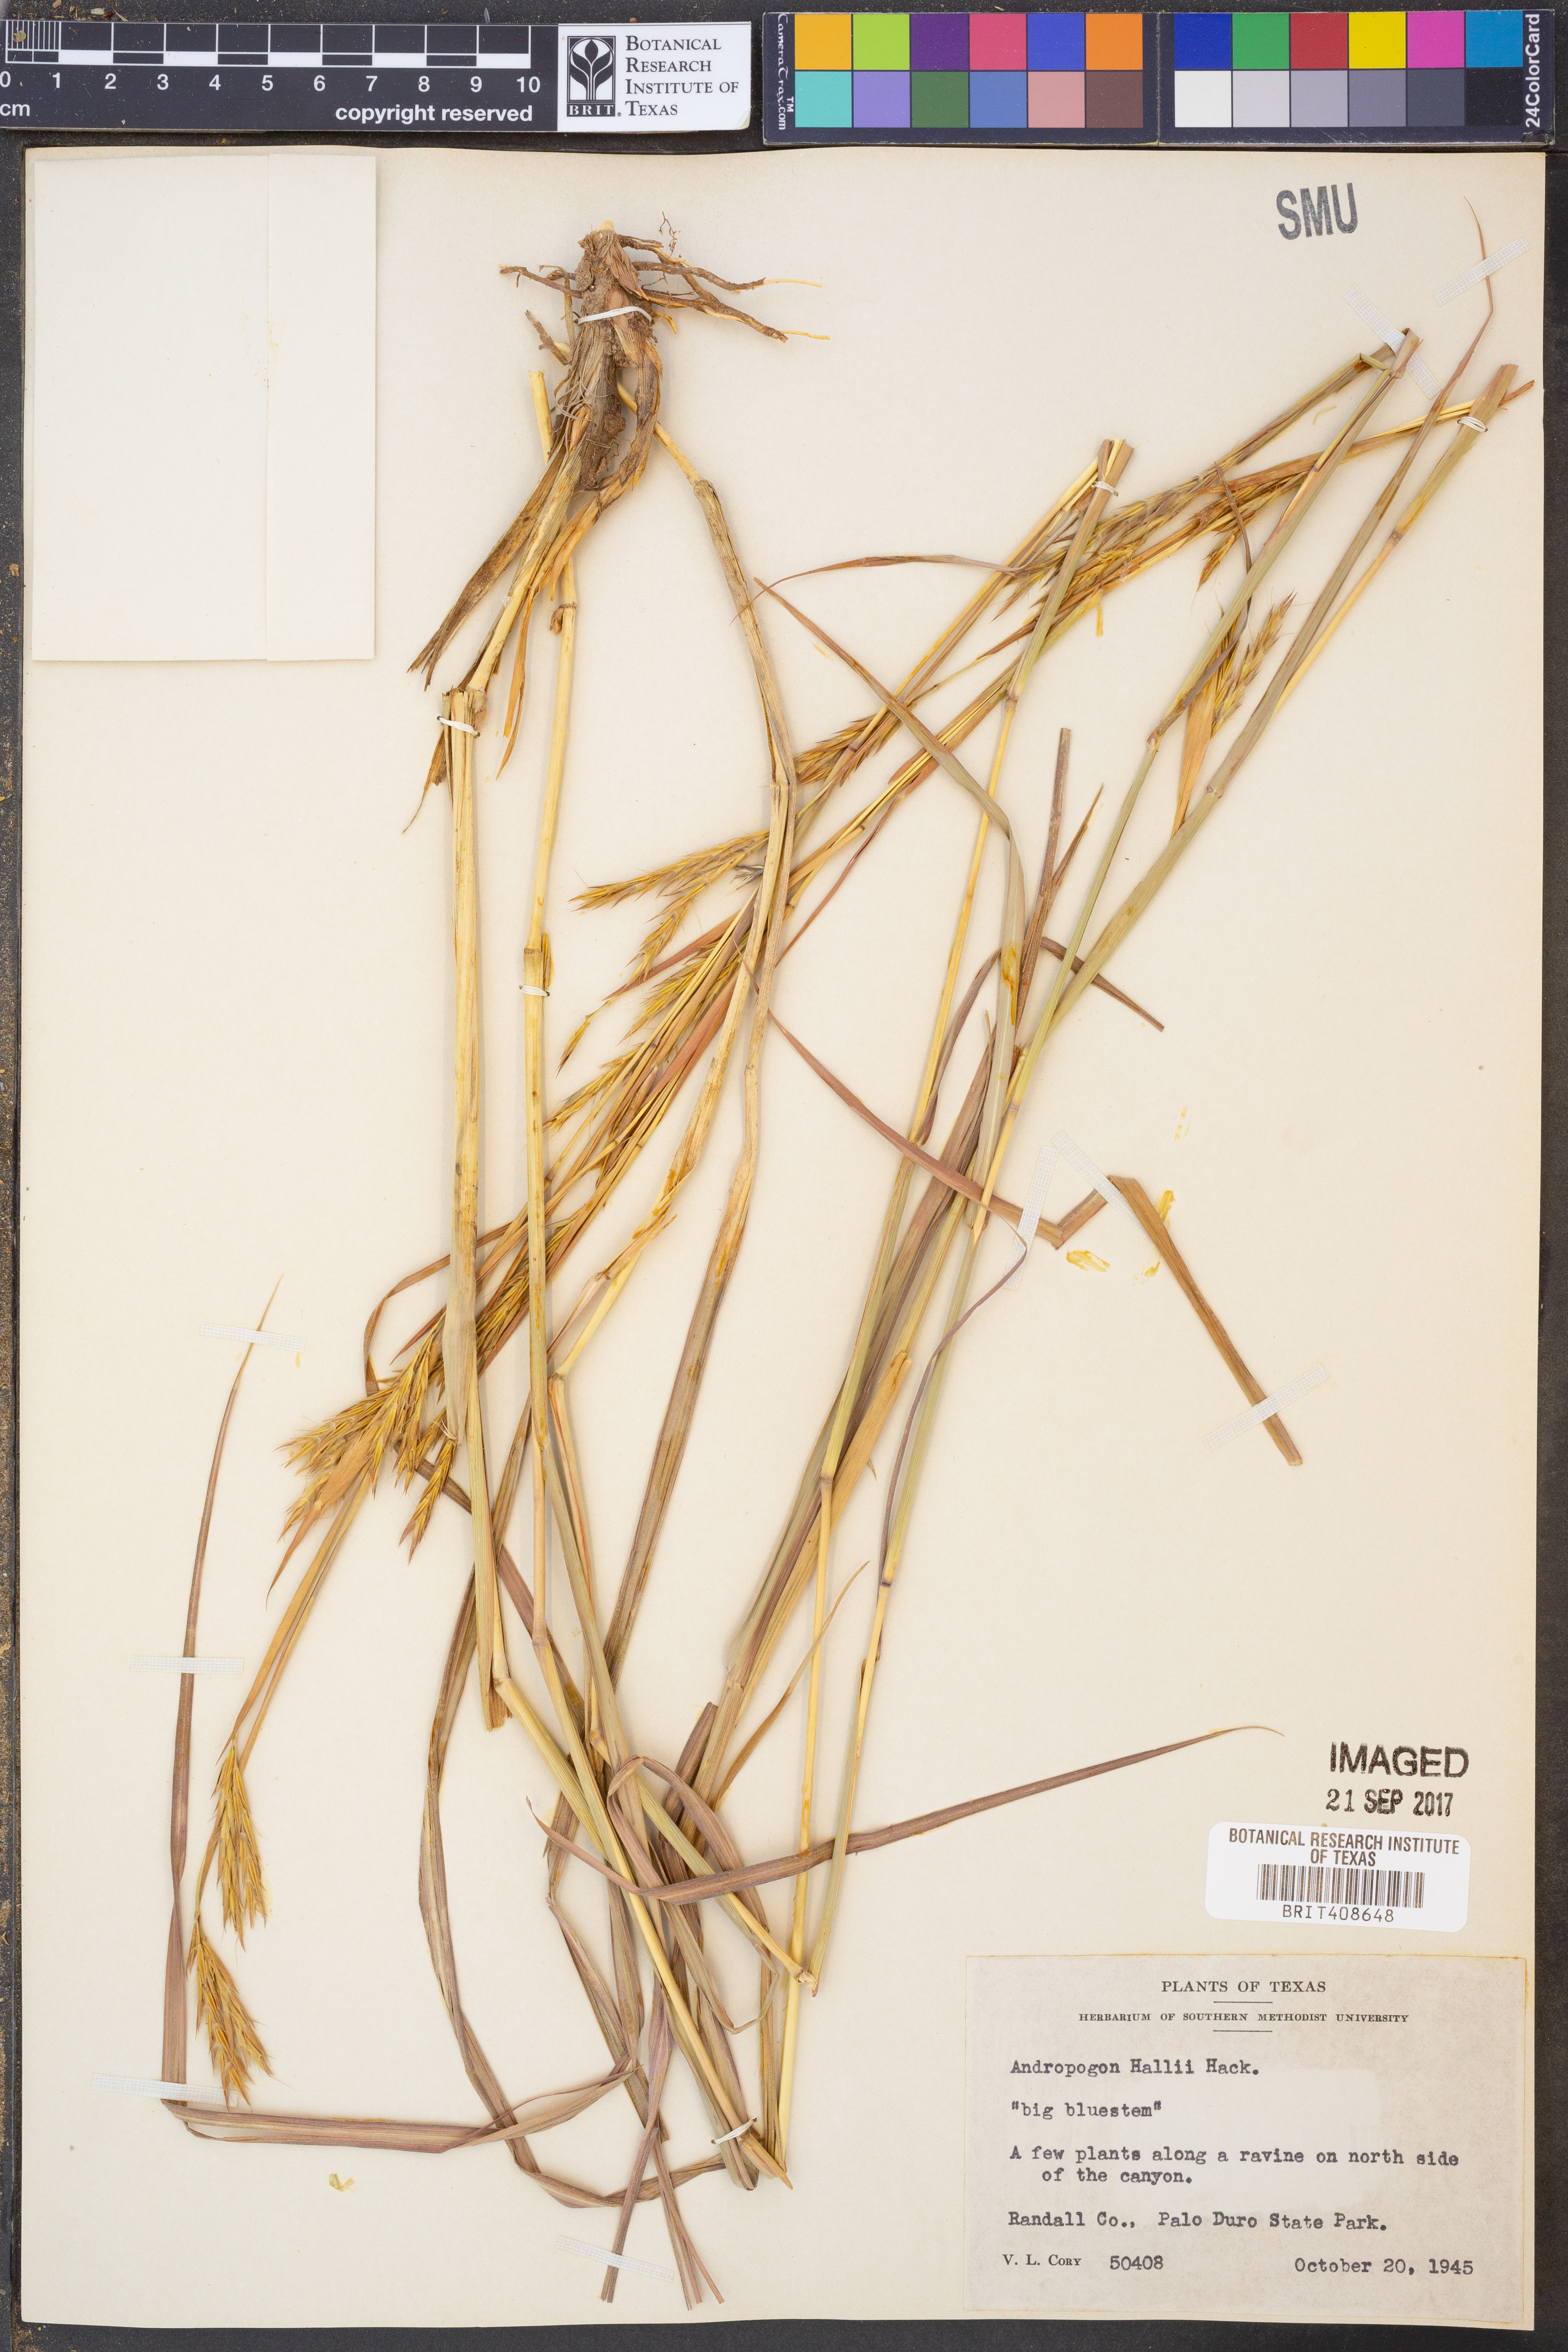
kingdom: Plantae
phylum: Tracheophyta
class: Liliopsida
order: Poales
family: Poaceae
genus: Andropogon
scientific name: Andropogon hallii
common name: Sand bluestem
